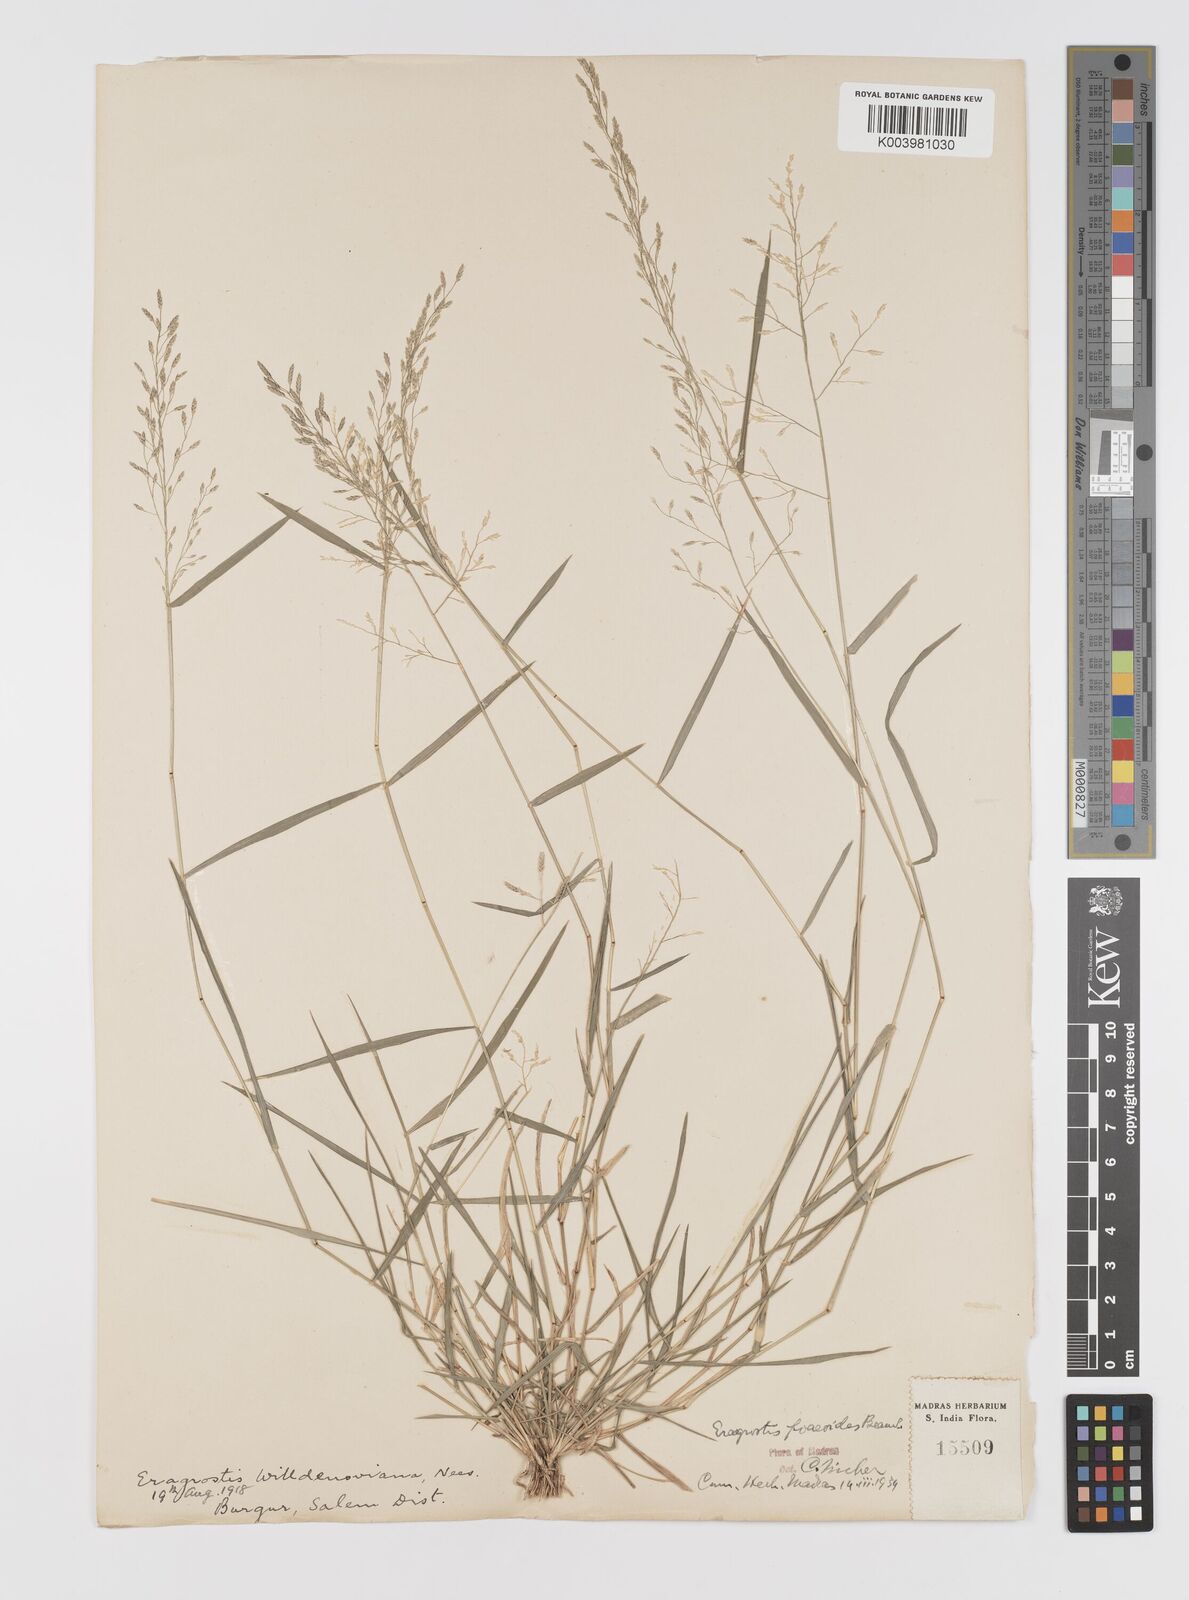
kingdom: Plantae
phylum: Tracheophyta
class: Liliopsida
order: Poales
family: Poaceae
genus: Eragrostis
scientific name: Eragrostis minor
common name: Small love-grass
